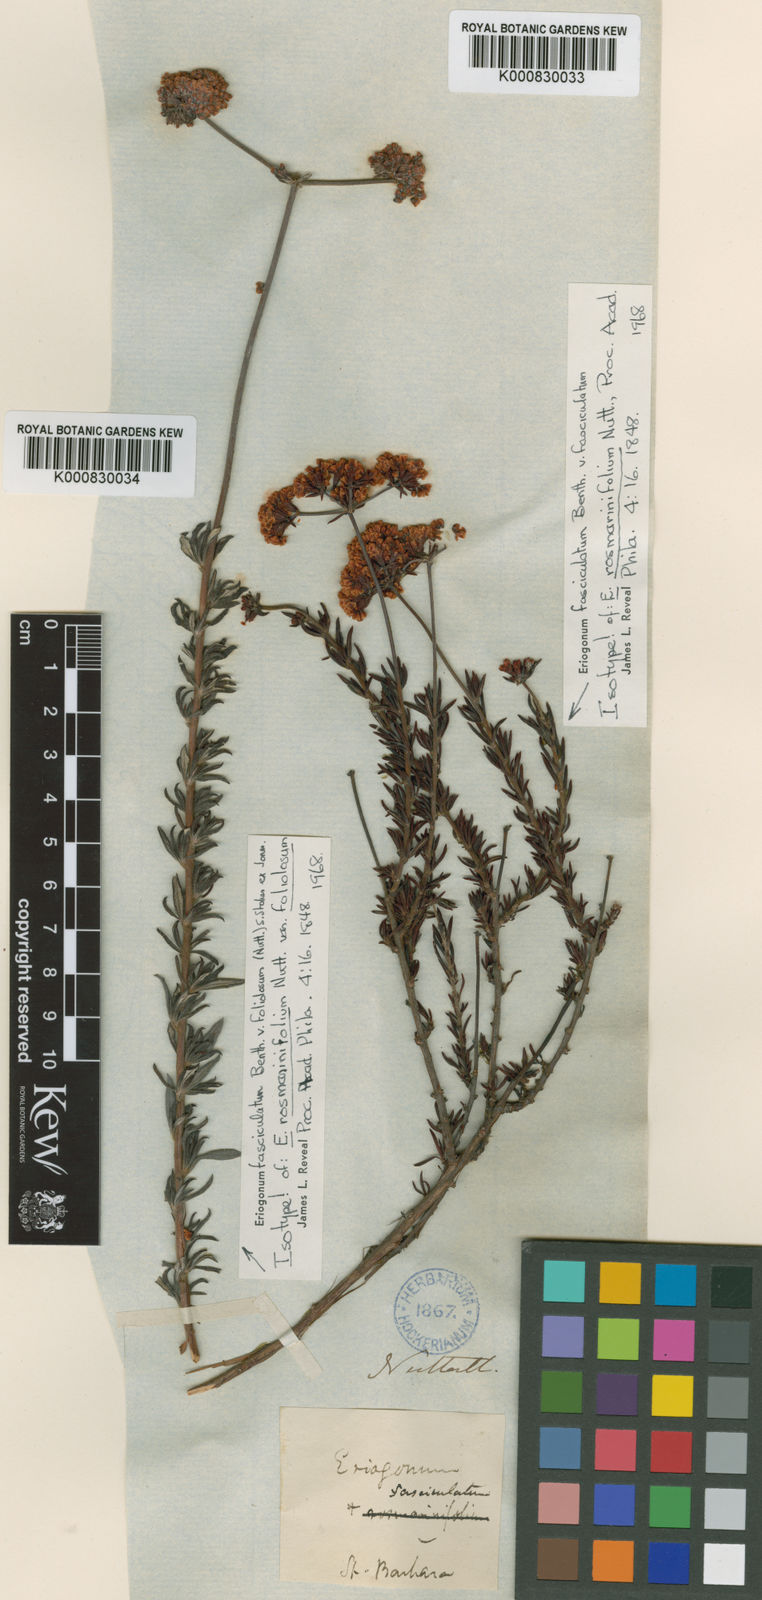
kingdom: Plantae
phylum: Tracheophyta
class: Magnoliopsida
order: Caryophyllales
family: Polygonaceae
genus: Eriogonum
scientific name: Eriogonum fasciculatum
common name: California wild buckwheat
